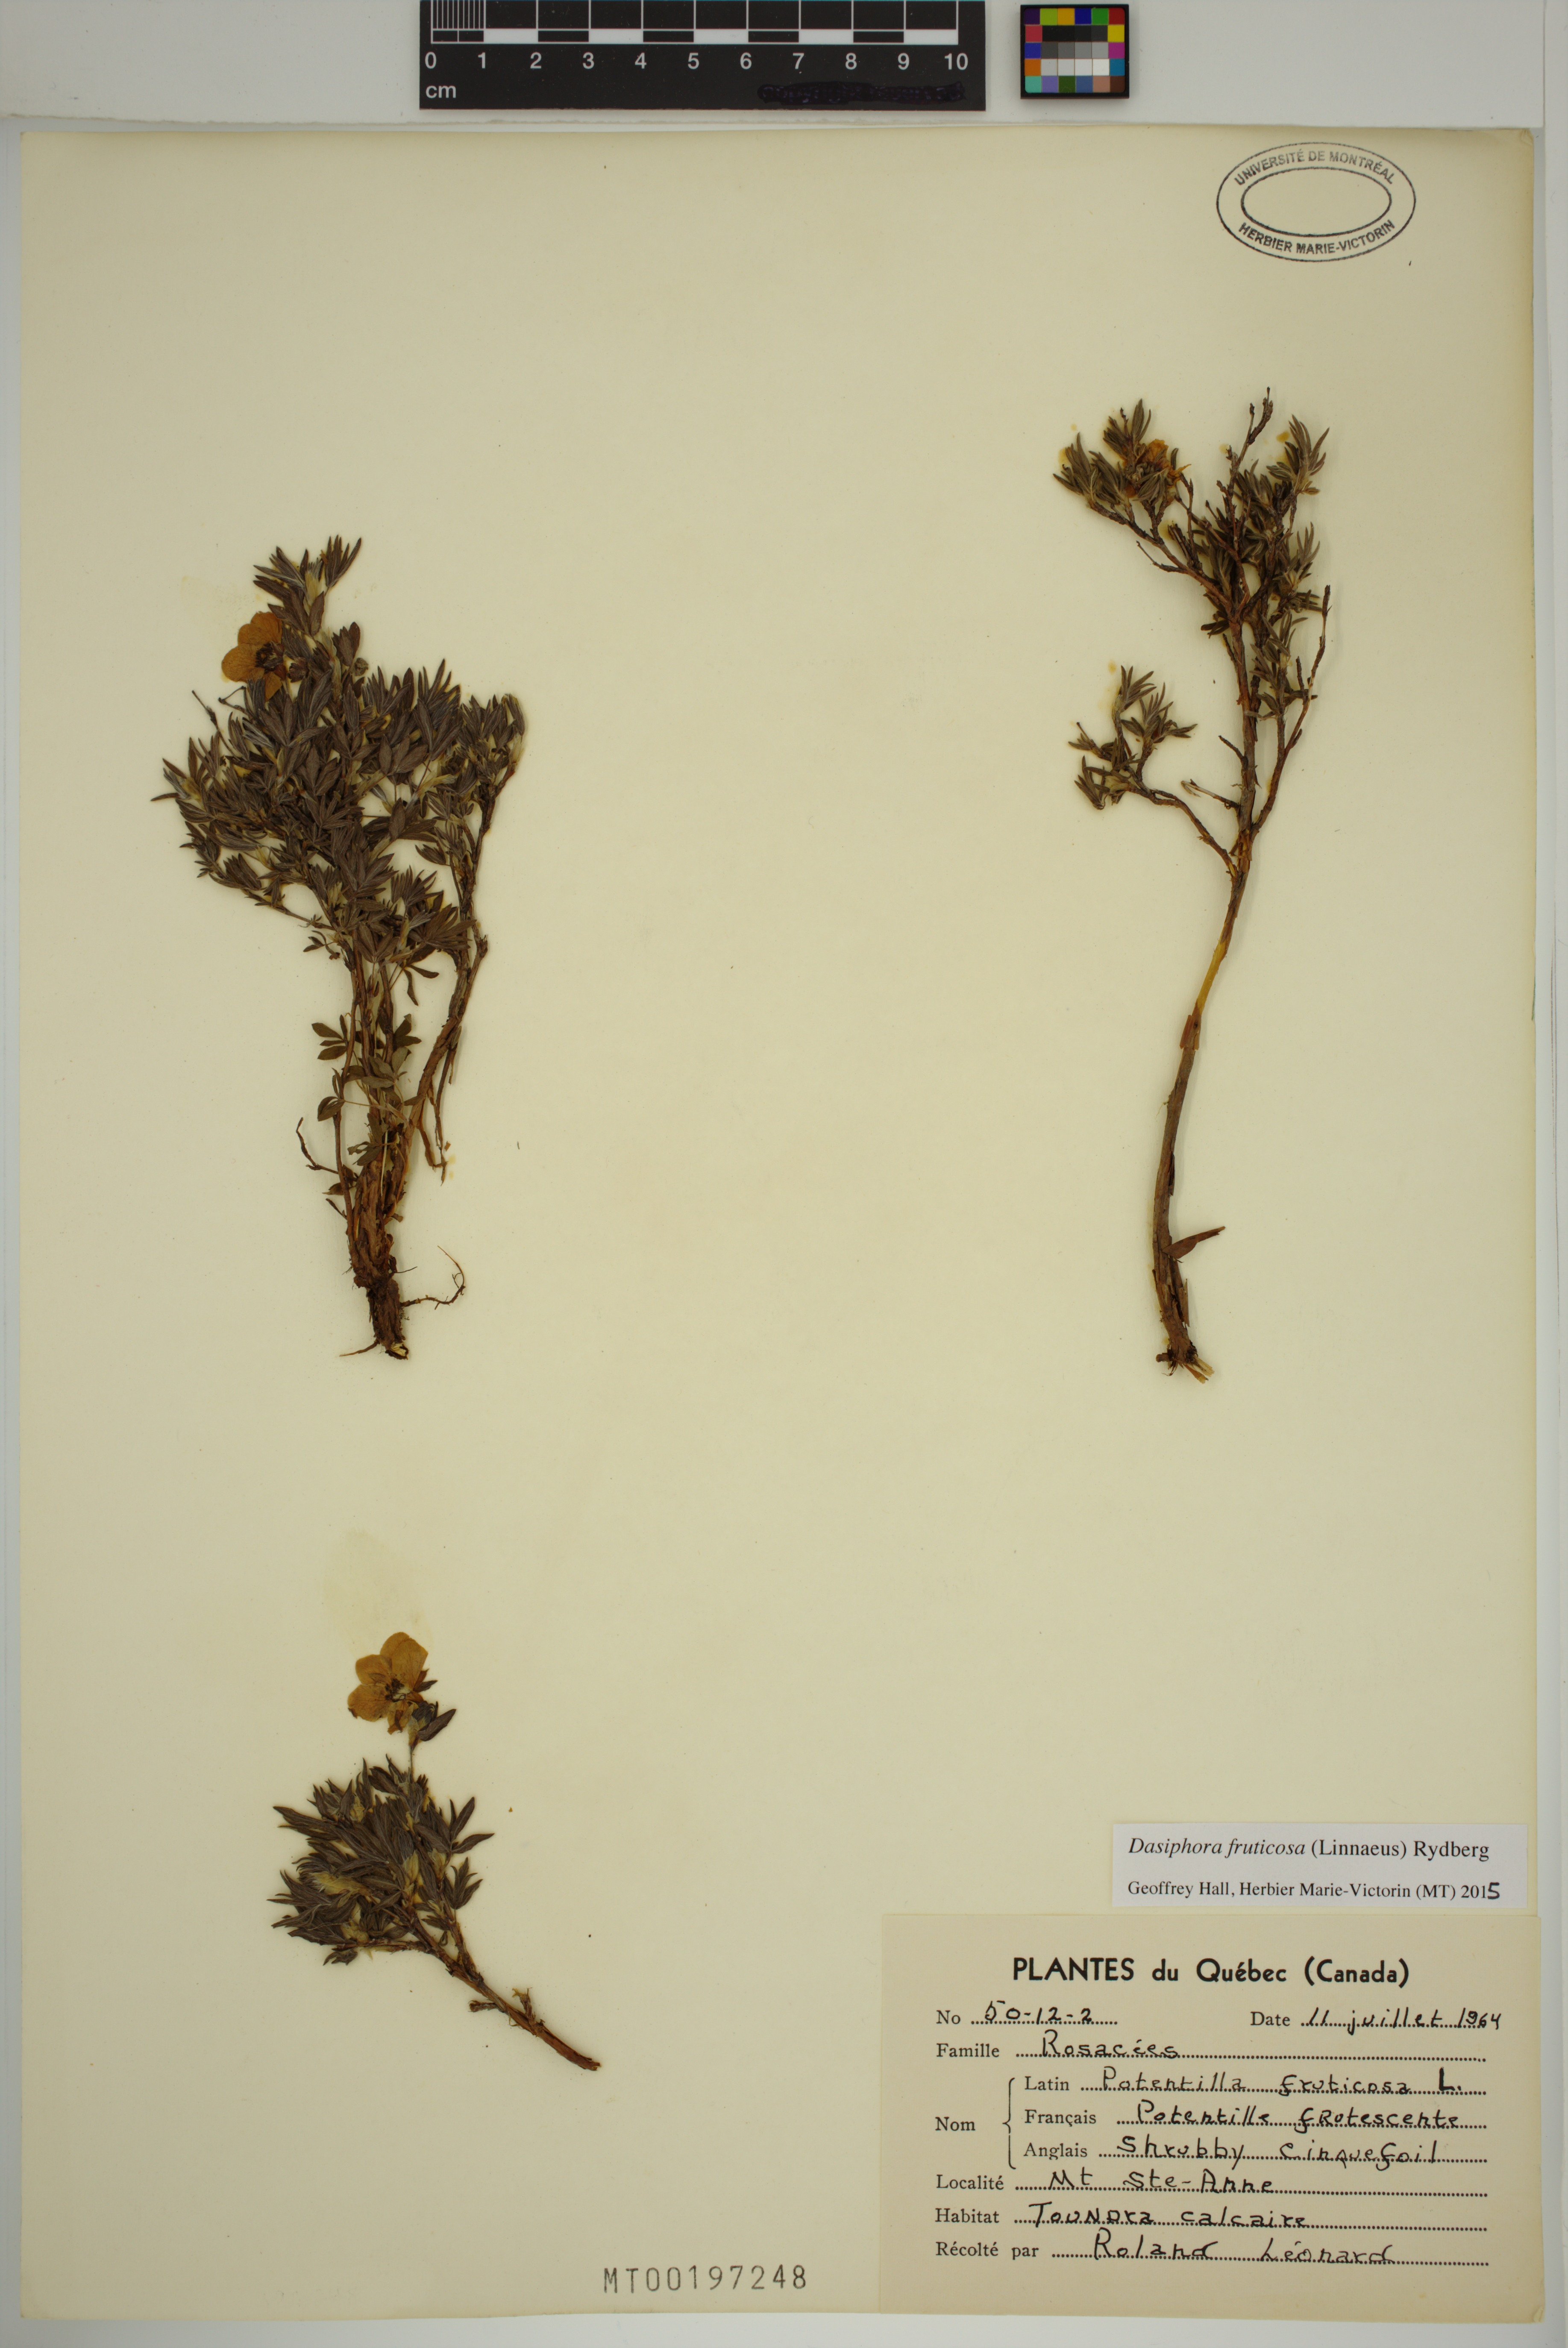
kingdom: Plantae
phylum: Tracheophyta
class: Magnoliopsida
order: Rosales
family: Rosaceae
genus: Dasiphora
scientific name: Dasiphora fruticosa
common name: Shrubby cinquefoil
